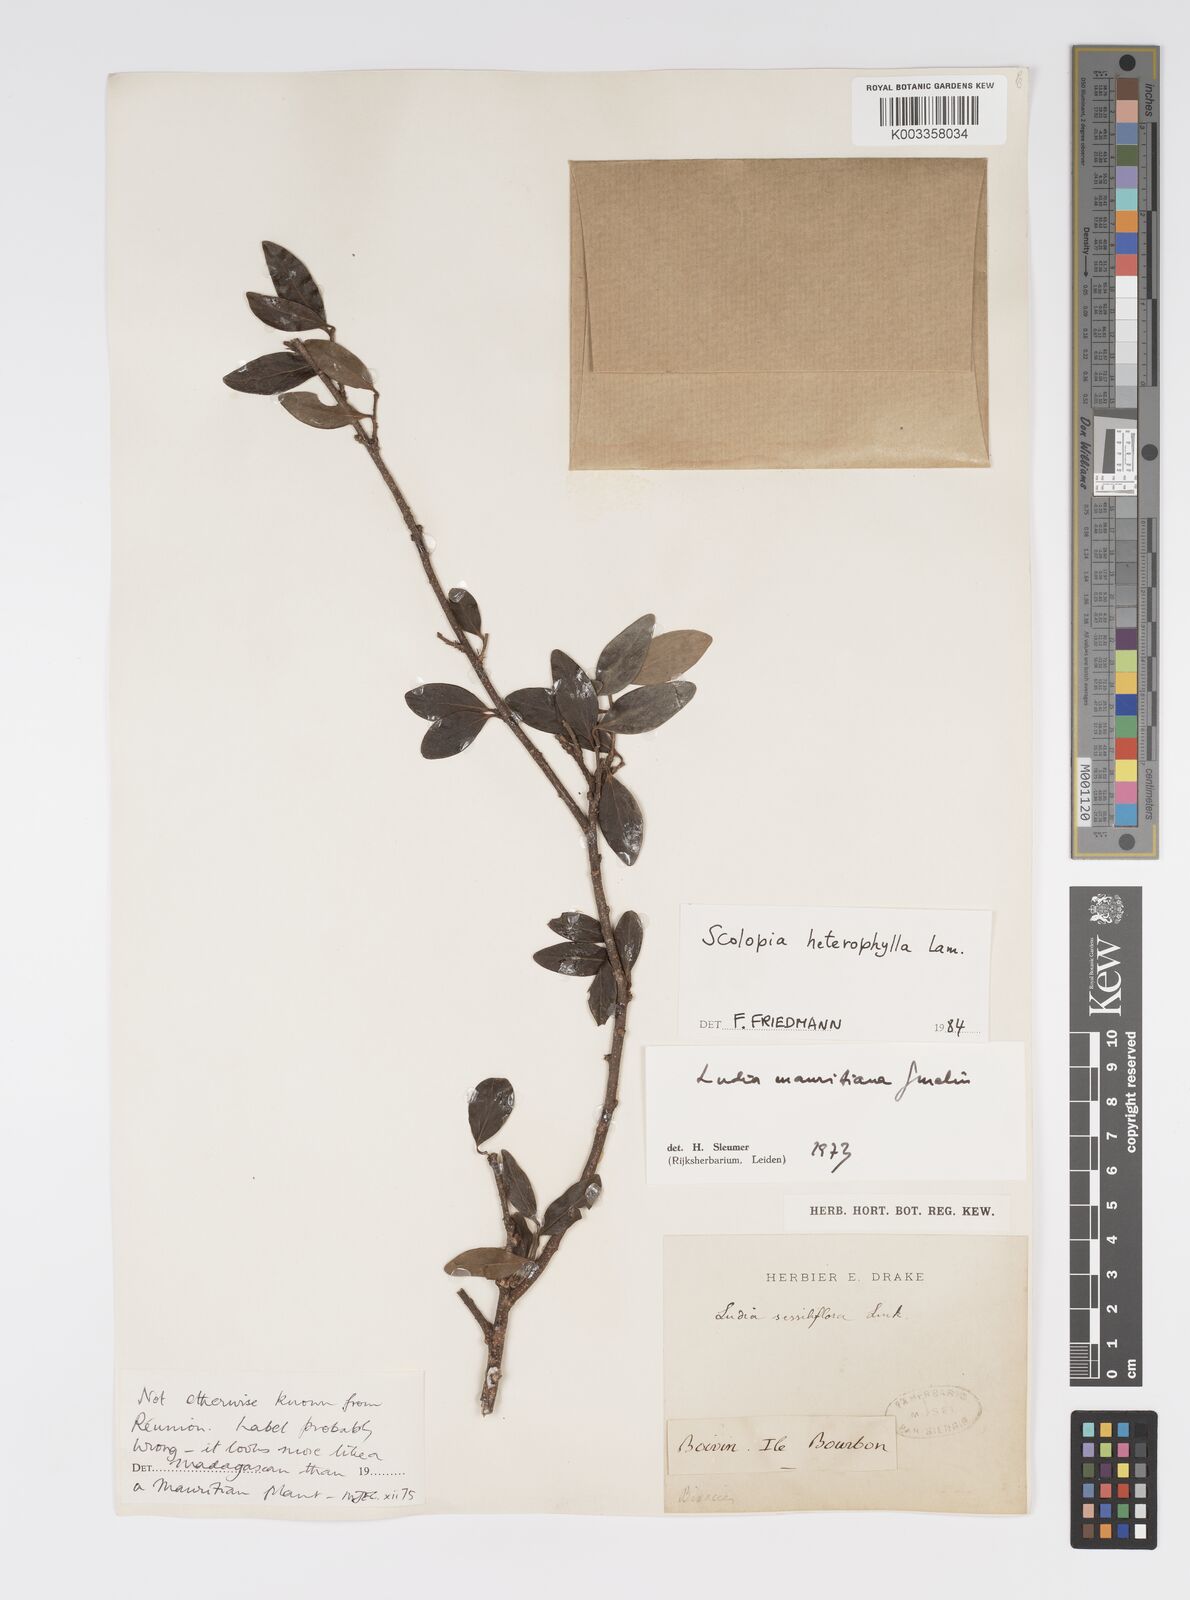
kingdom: Plantae
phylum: Tracheophyta
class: Magnoliopsida
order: Malpighiales
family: Salicaceae
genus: Scolopia
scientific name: Scolopia heterophylla
